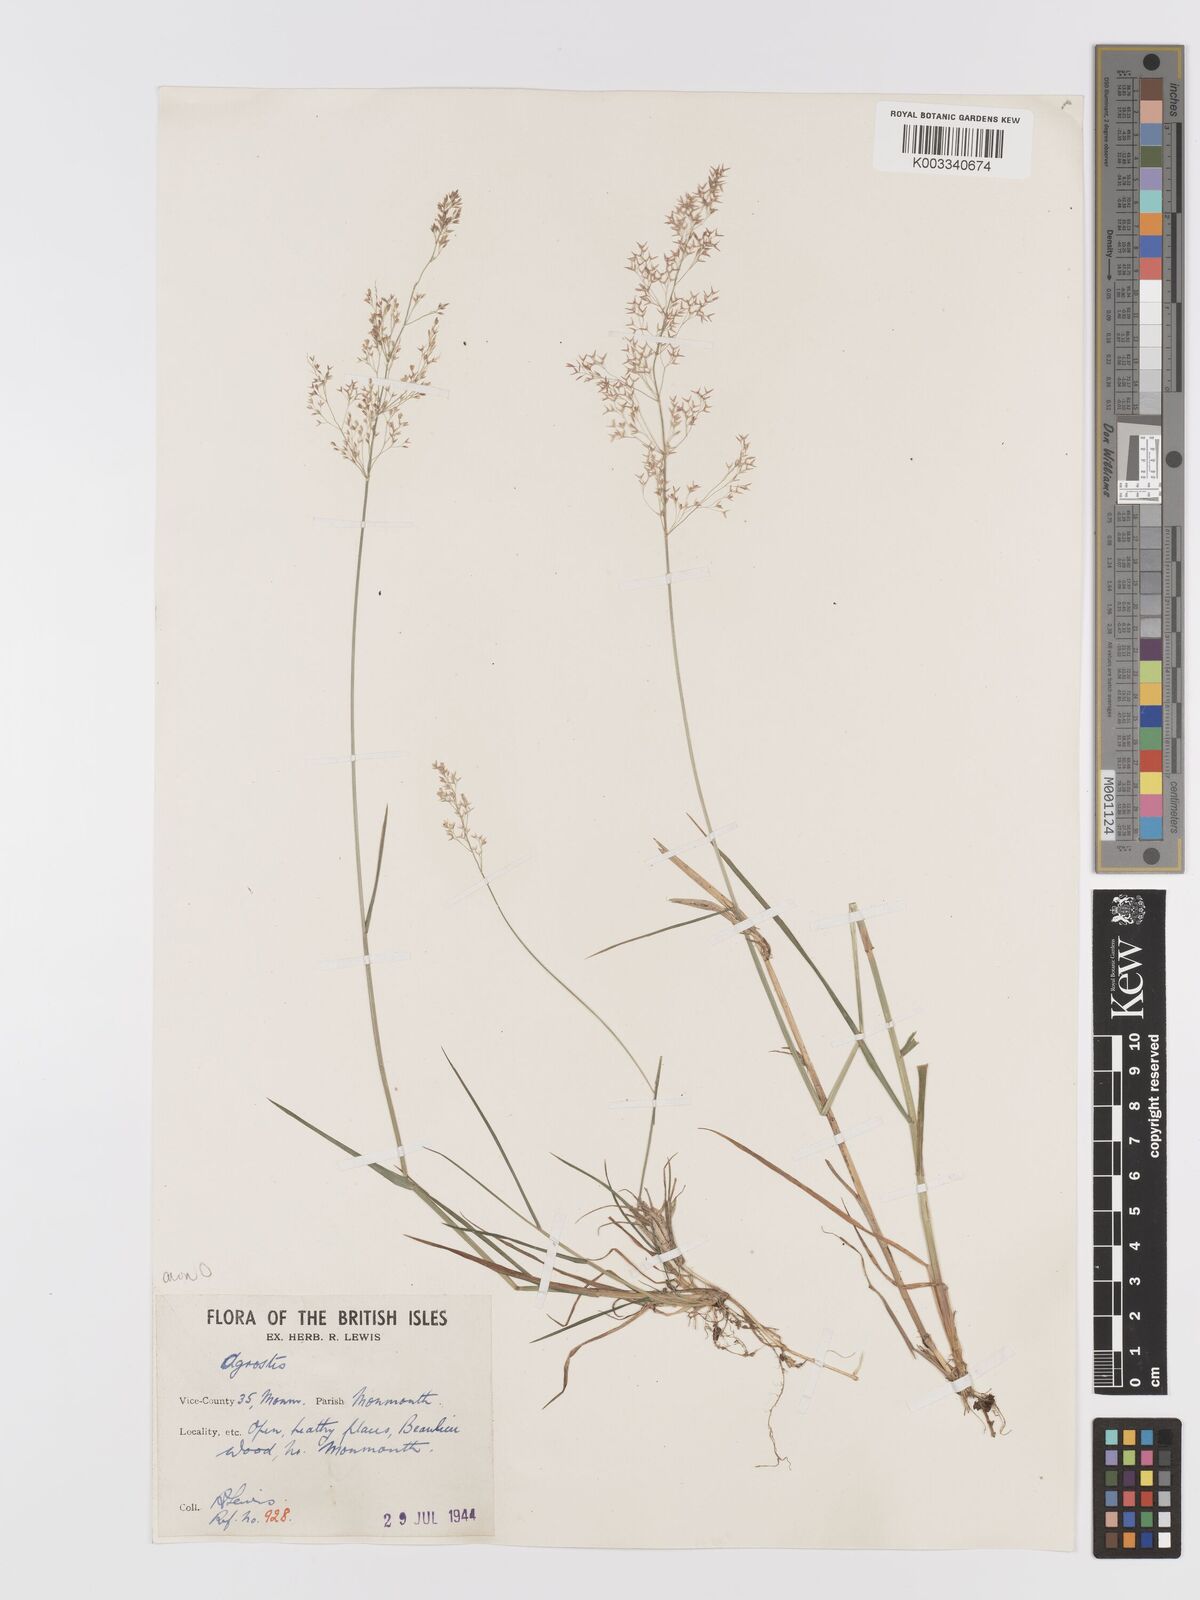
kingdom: Plantae
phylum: Tracheophyta
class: Liliopsida
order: Poales
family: Poaceae
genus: Agrostis
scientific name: Agrostis capillaris
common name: Colonial bentgrass
